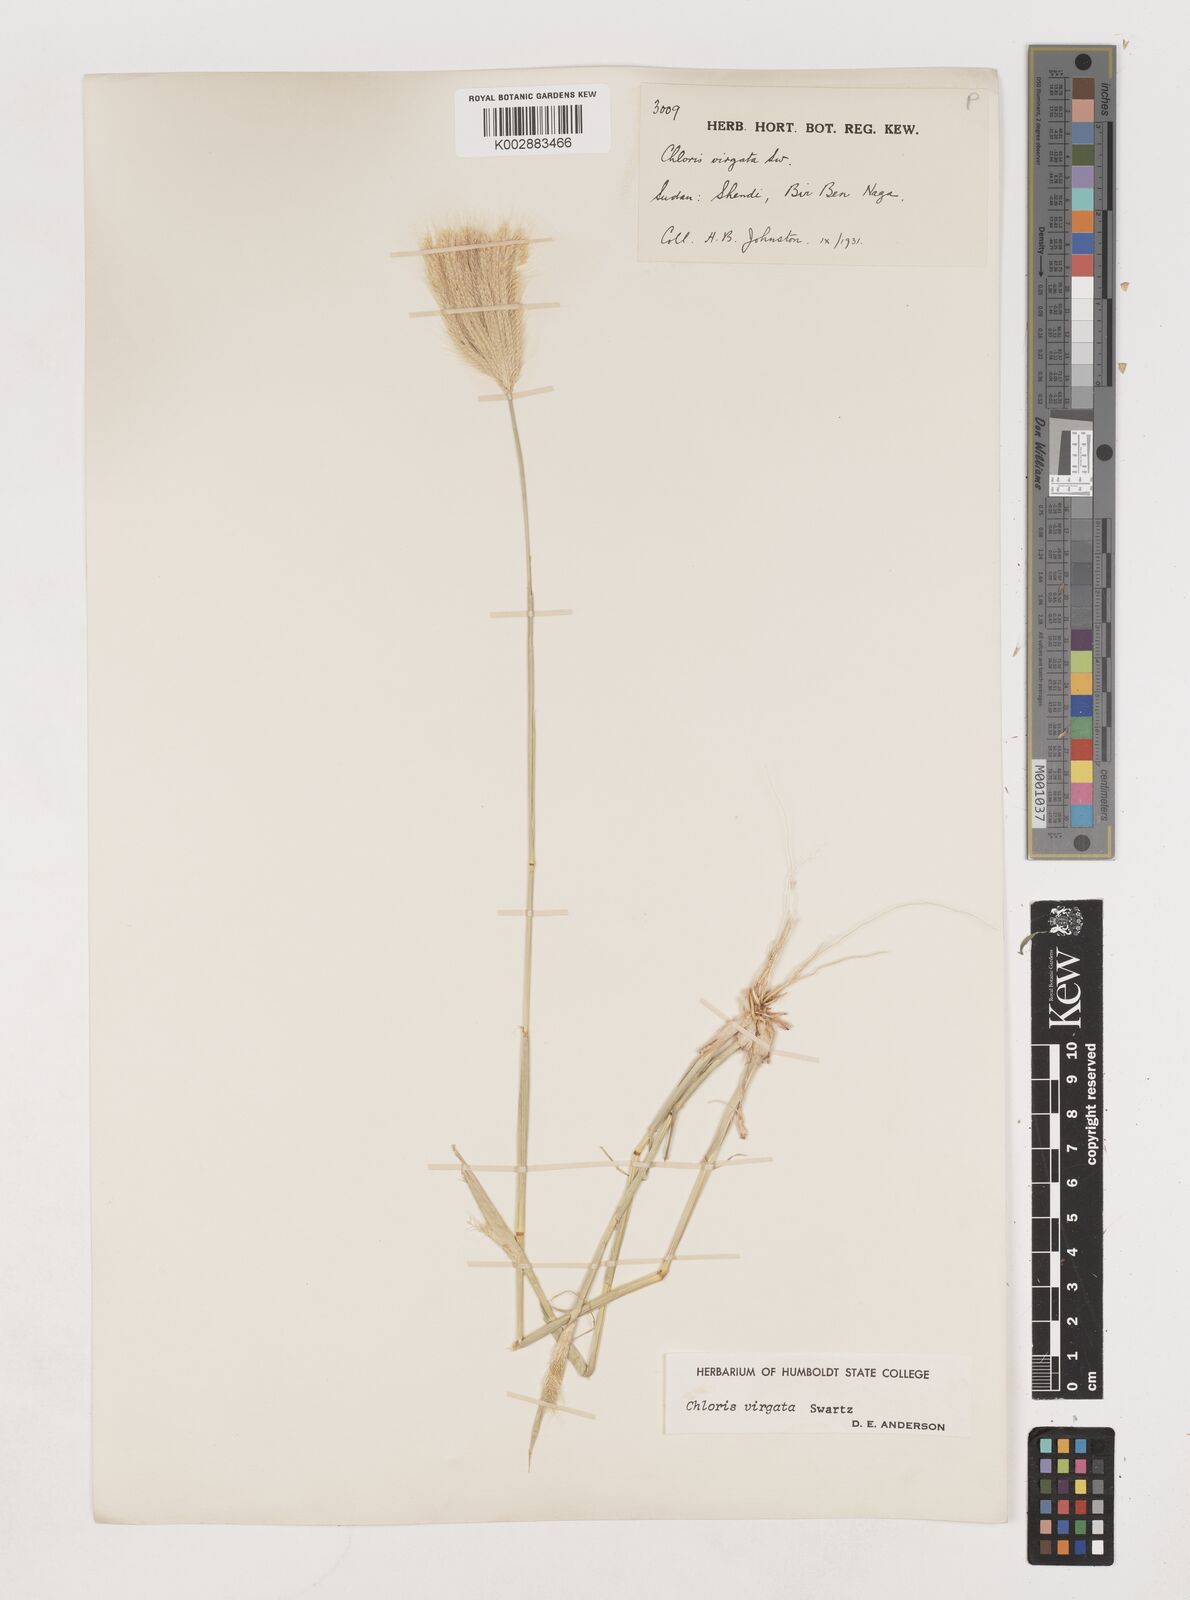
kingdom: Plantae
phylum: Tracheophyta
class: Liliopsida
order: Poales
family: Poaceae
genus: Chloris
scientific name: Chloris virgata
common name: Feathery rhodes-grass
